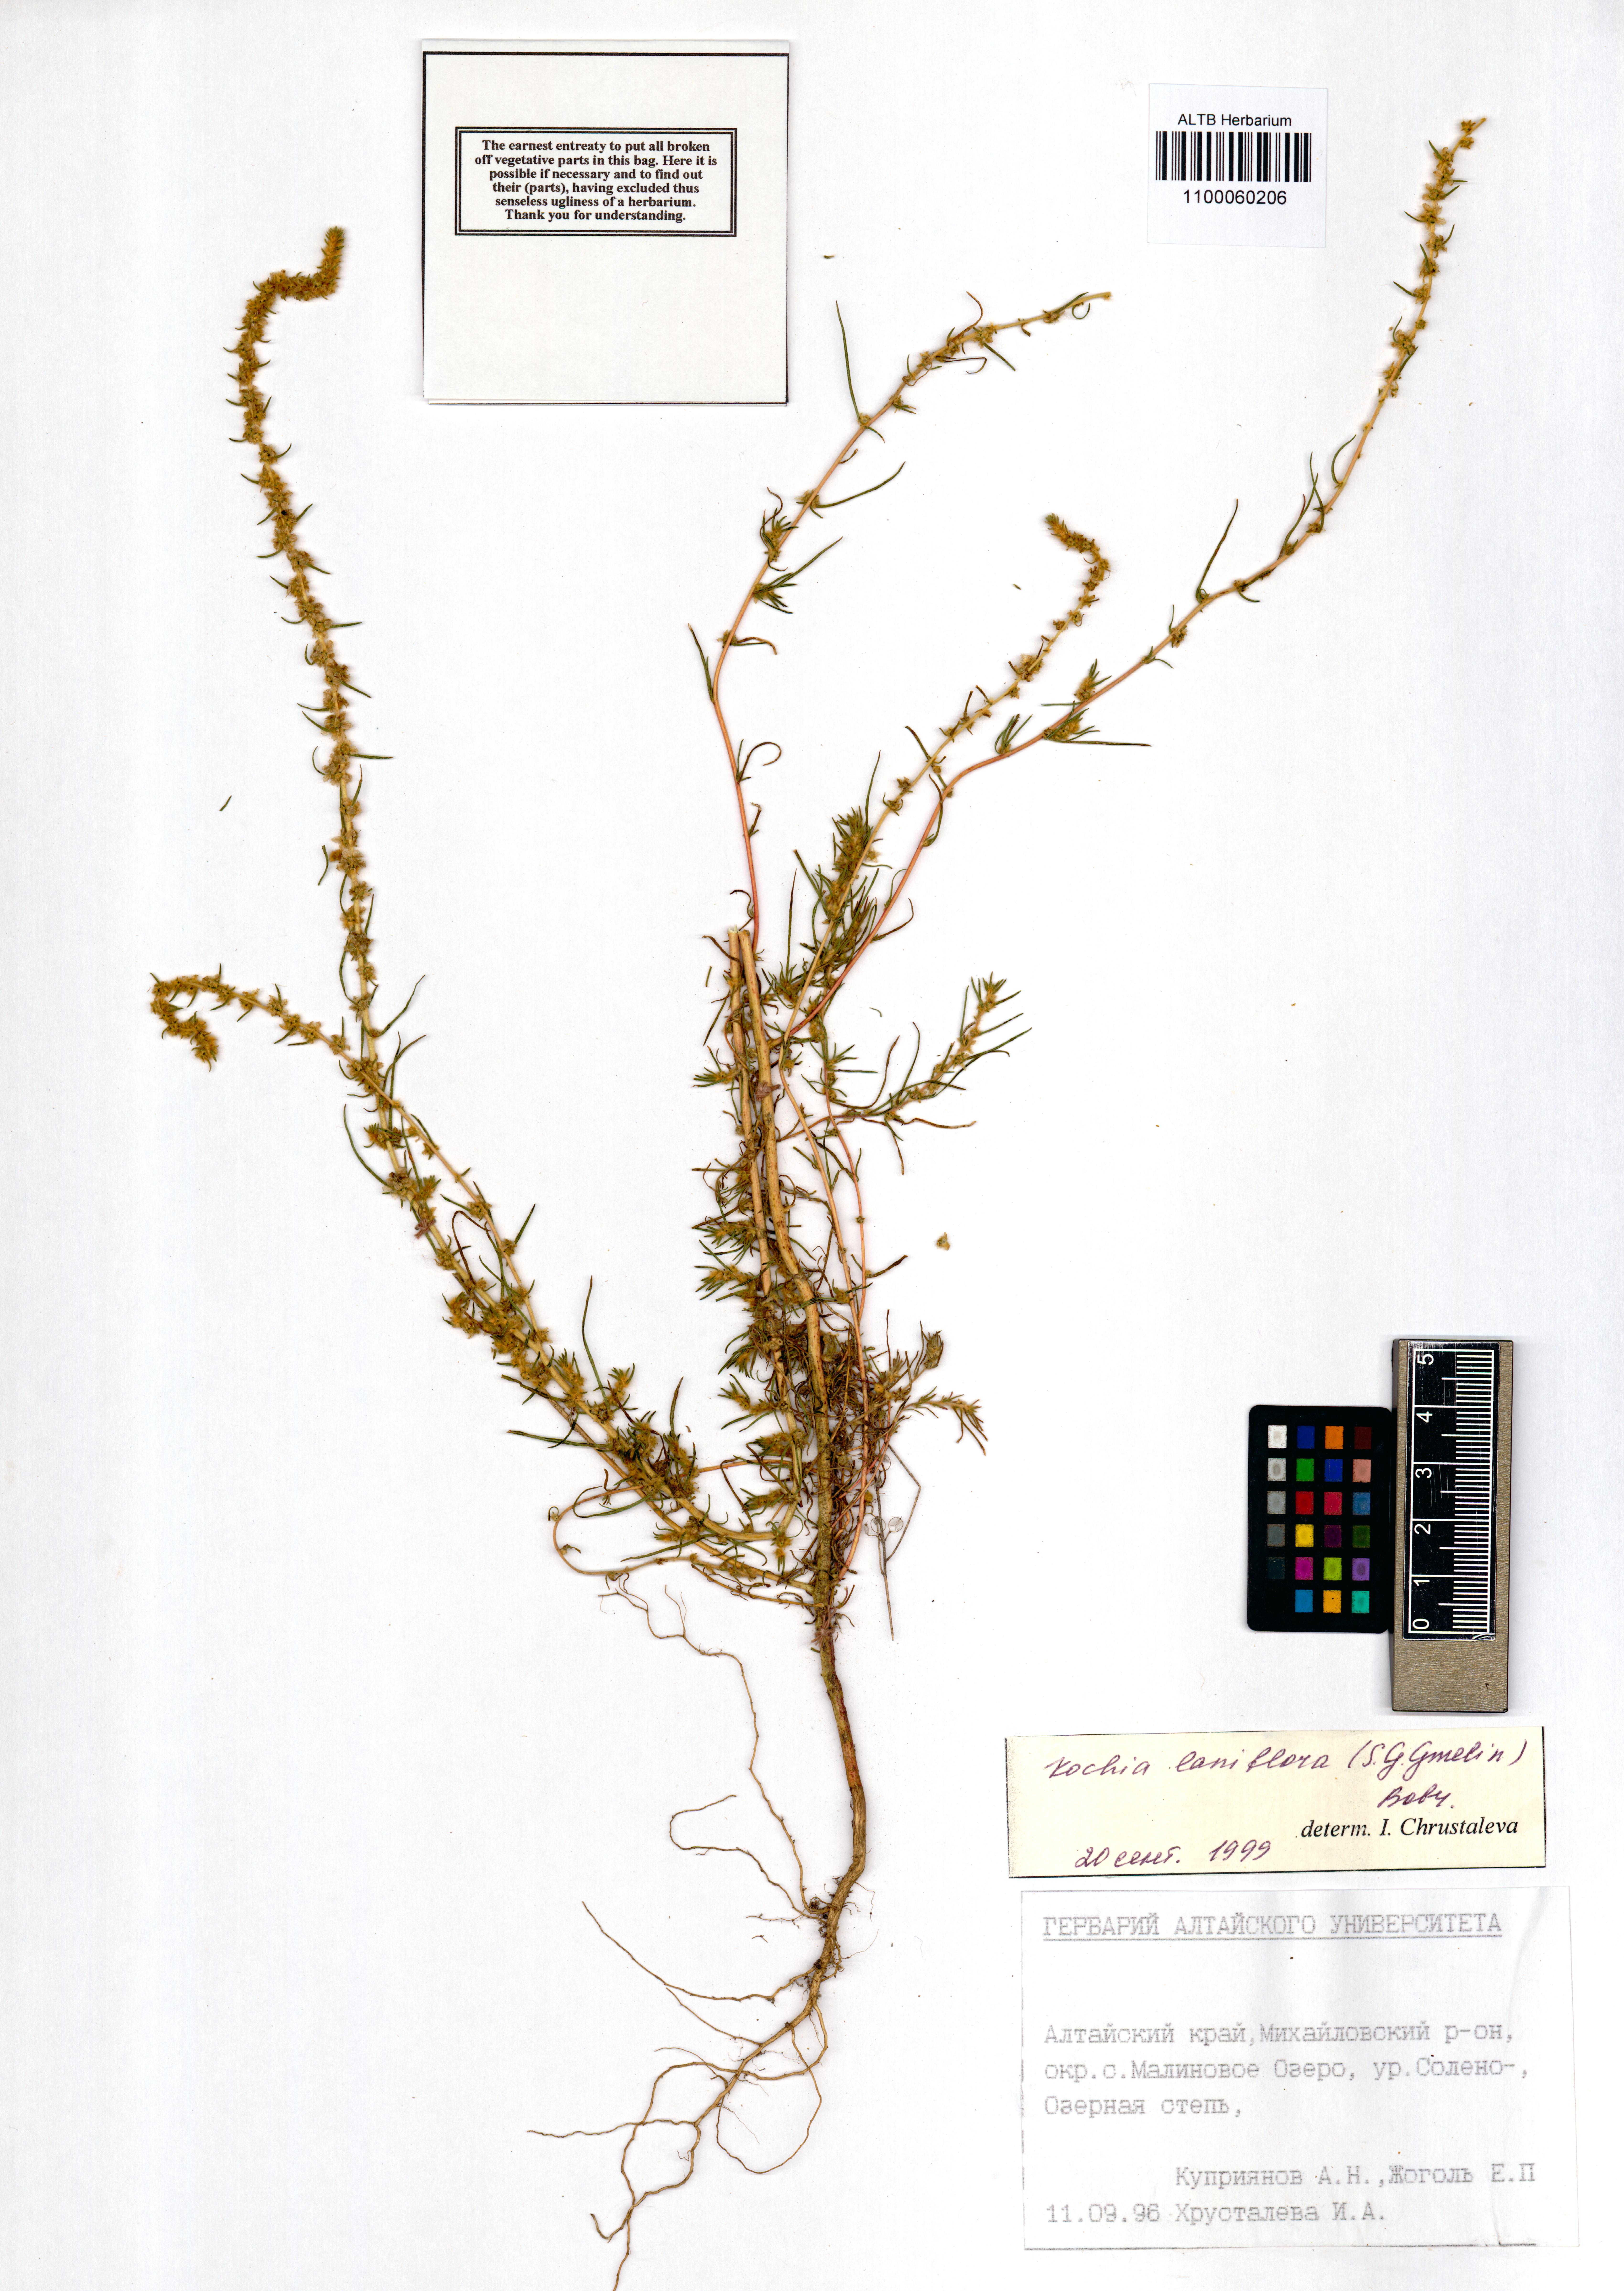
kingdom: Plantae
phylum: Tracheophyta
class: Magnoliopsida
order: Caryophyllales
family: Amaranthaceae
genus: Bassia
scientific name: Bassia laniflora
